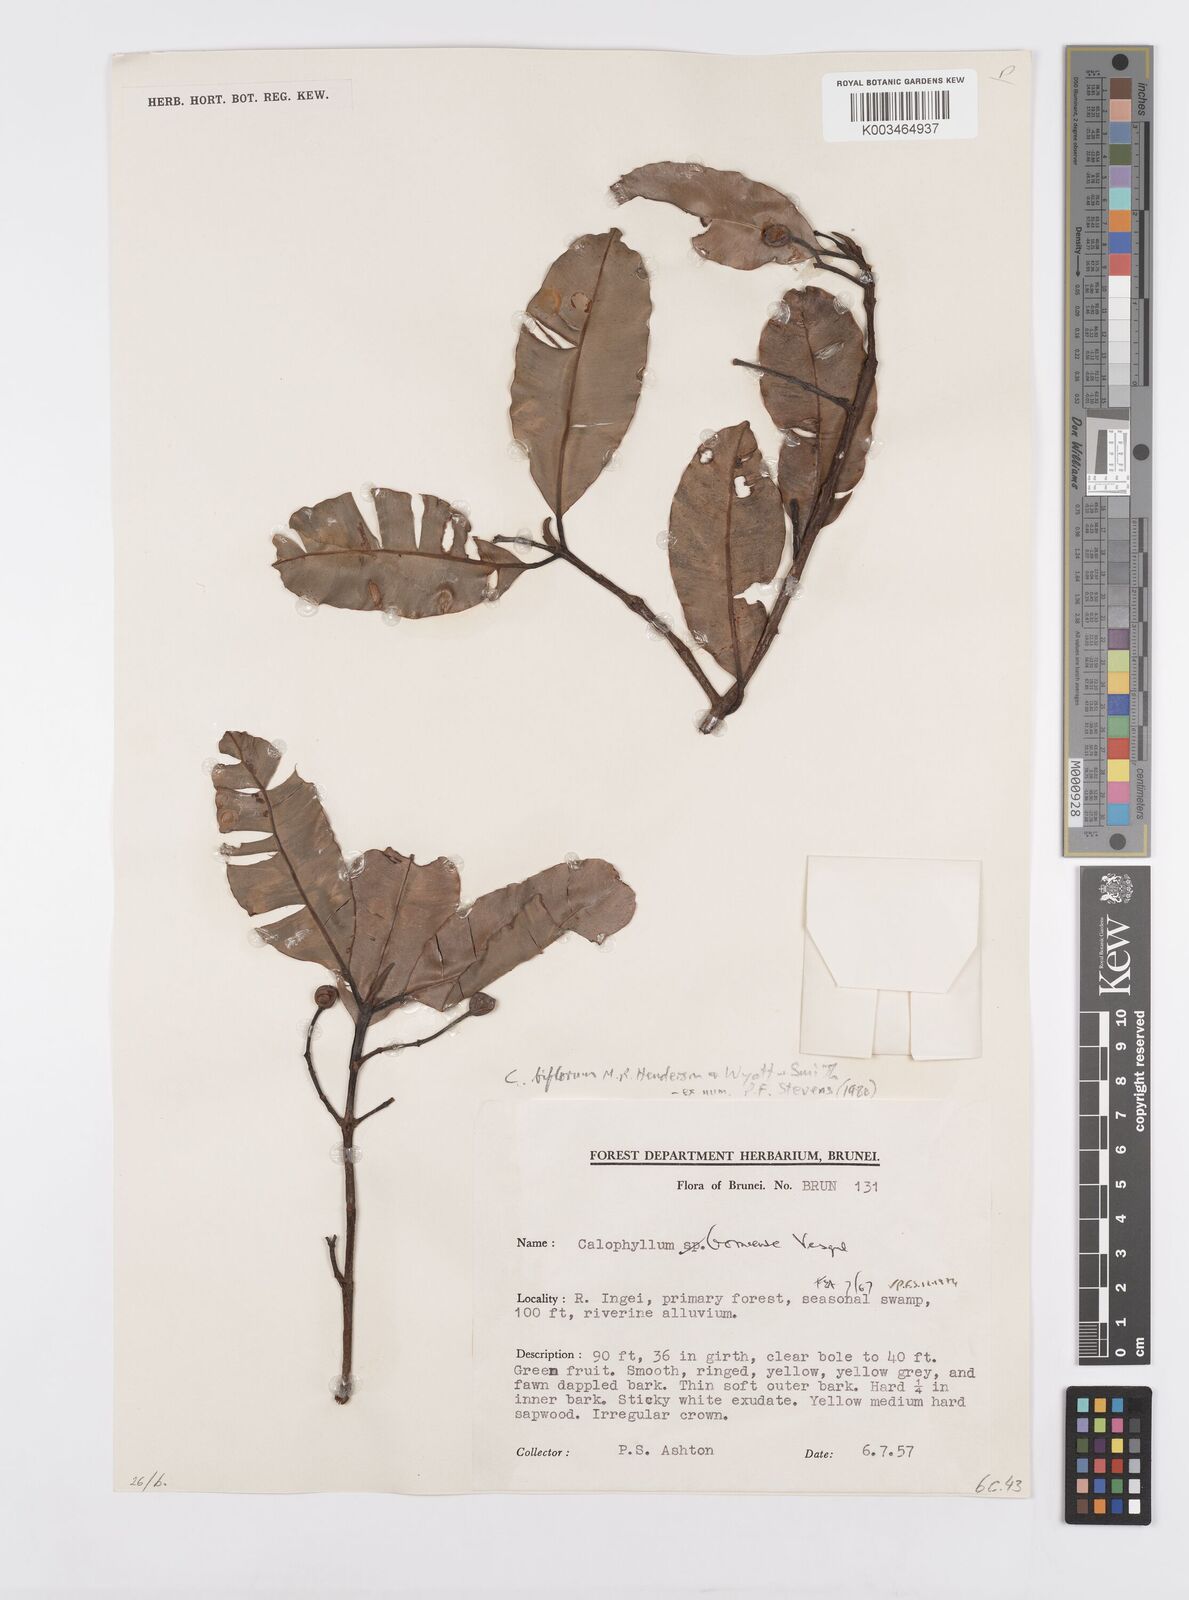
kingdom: Plantae
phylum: Tracheophyta
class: Magnoliopsida
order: Malpighiales
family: Calophyllaceae
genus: Calophyllum
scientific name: Calophyllum biflorum
